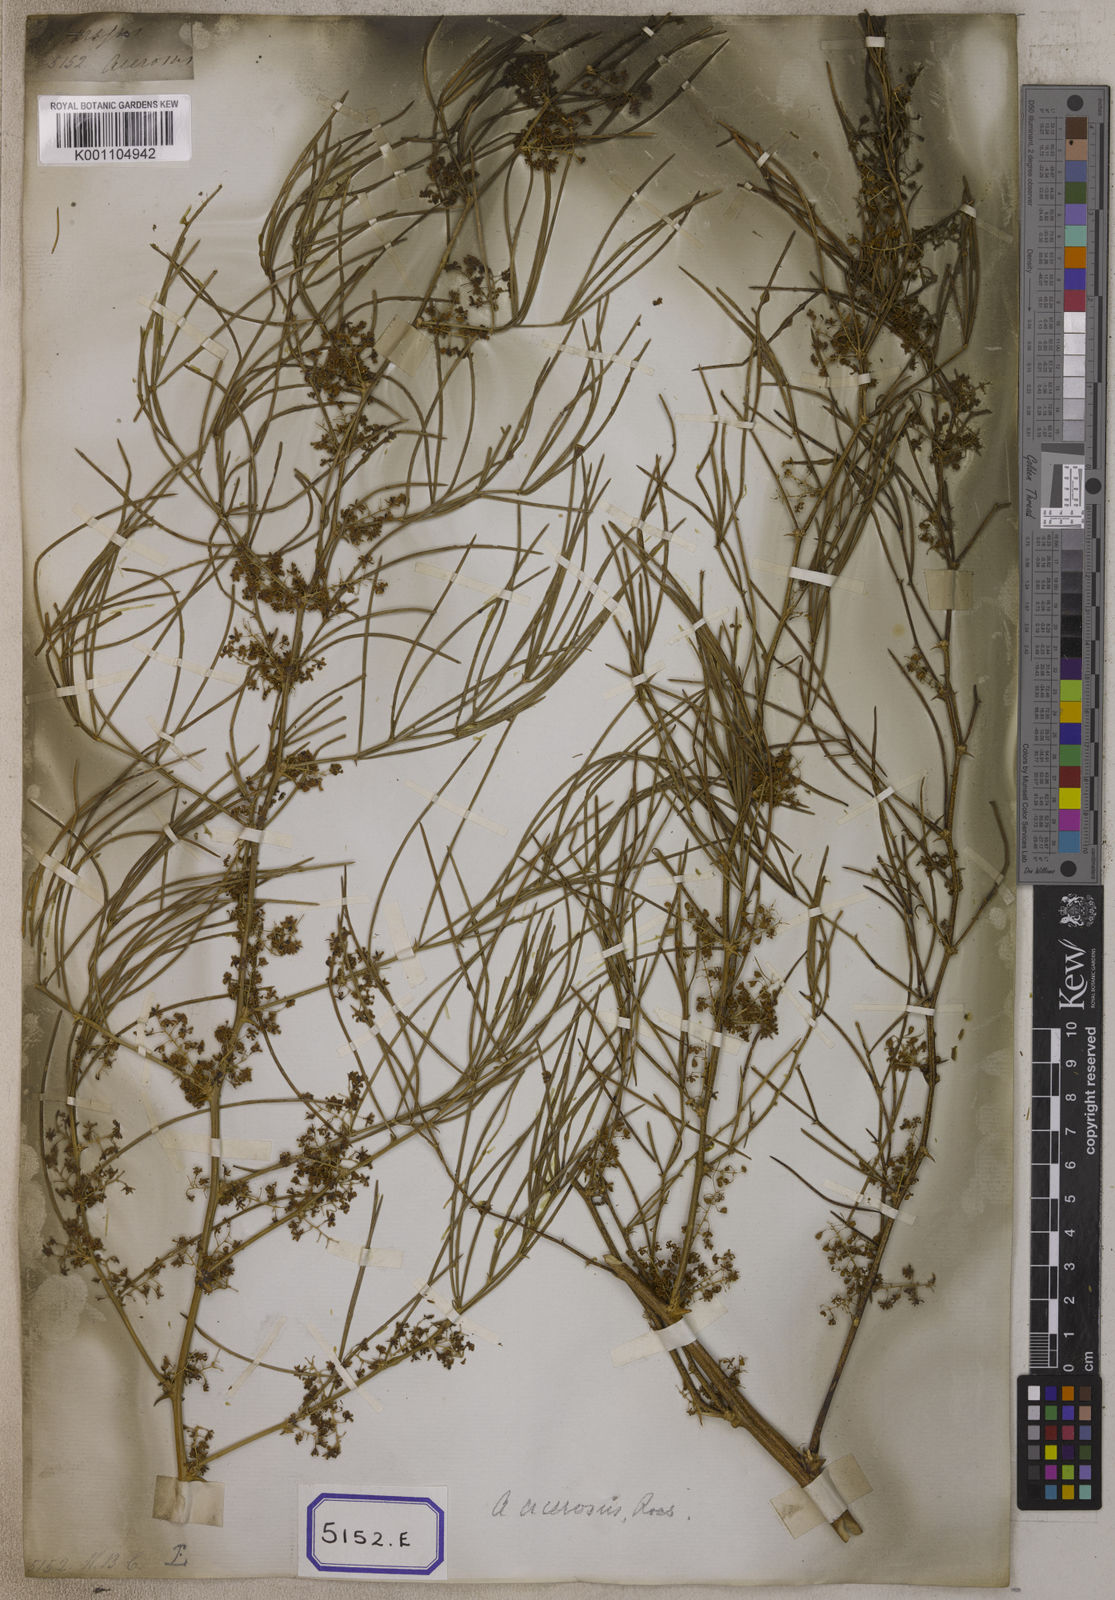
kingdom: Plantae
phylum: Tracheophyta
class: Liliopsida
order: Asparagales
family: Asparagaceae
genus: Asparagus
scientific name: Asparagus racemosus
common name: Asparagus-fern
